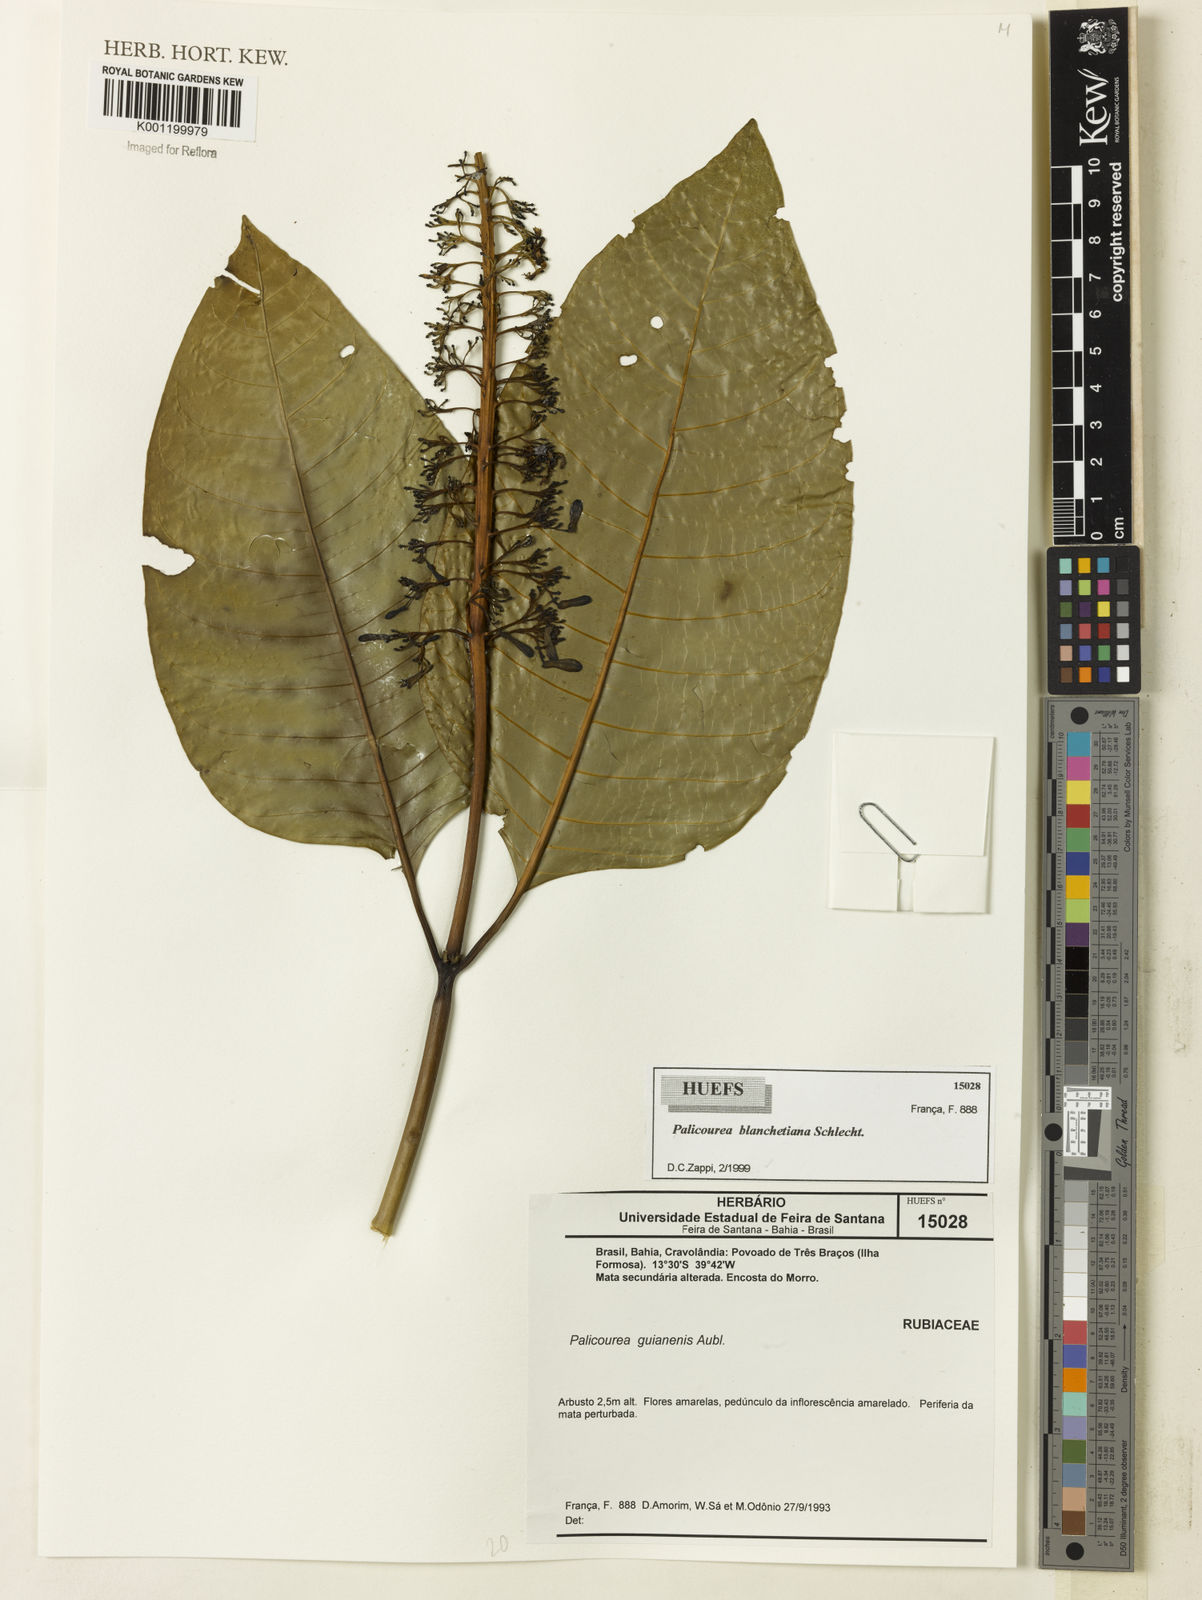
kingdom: Plantae
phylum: Tracheophyta
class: Magnoliopsida
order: Gentianales
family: Rubiaceae
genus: Palicourea
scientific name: Palicourea blanchetiana
